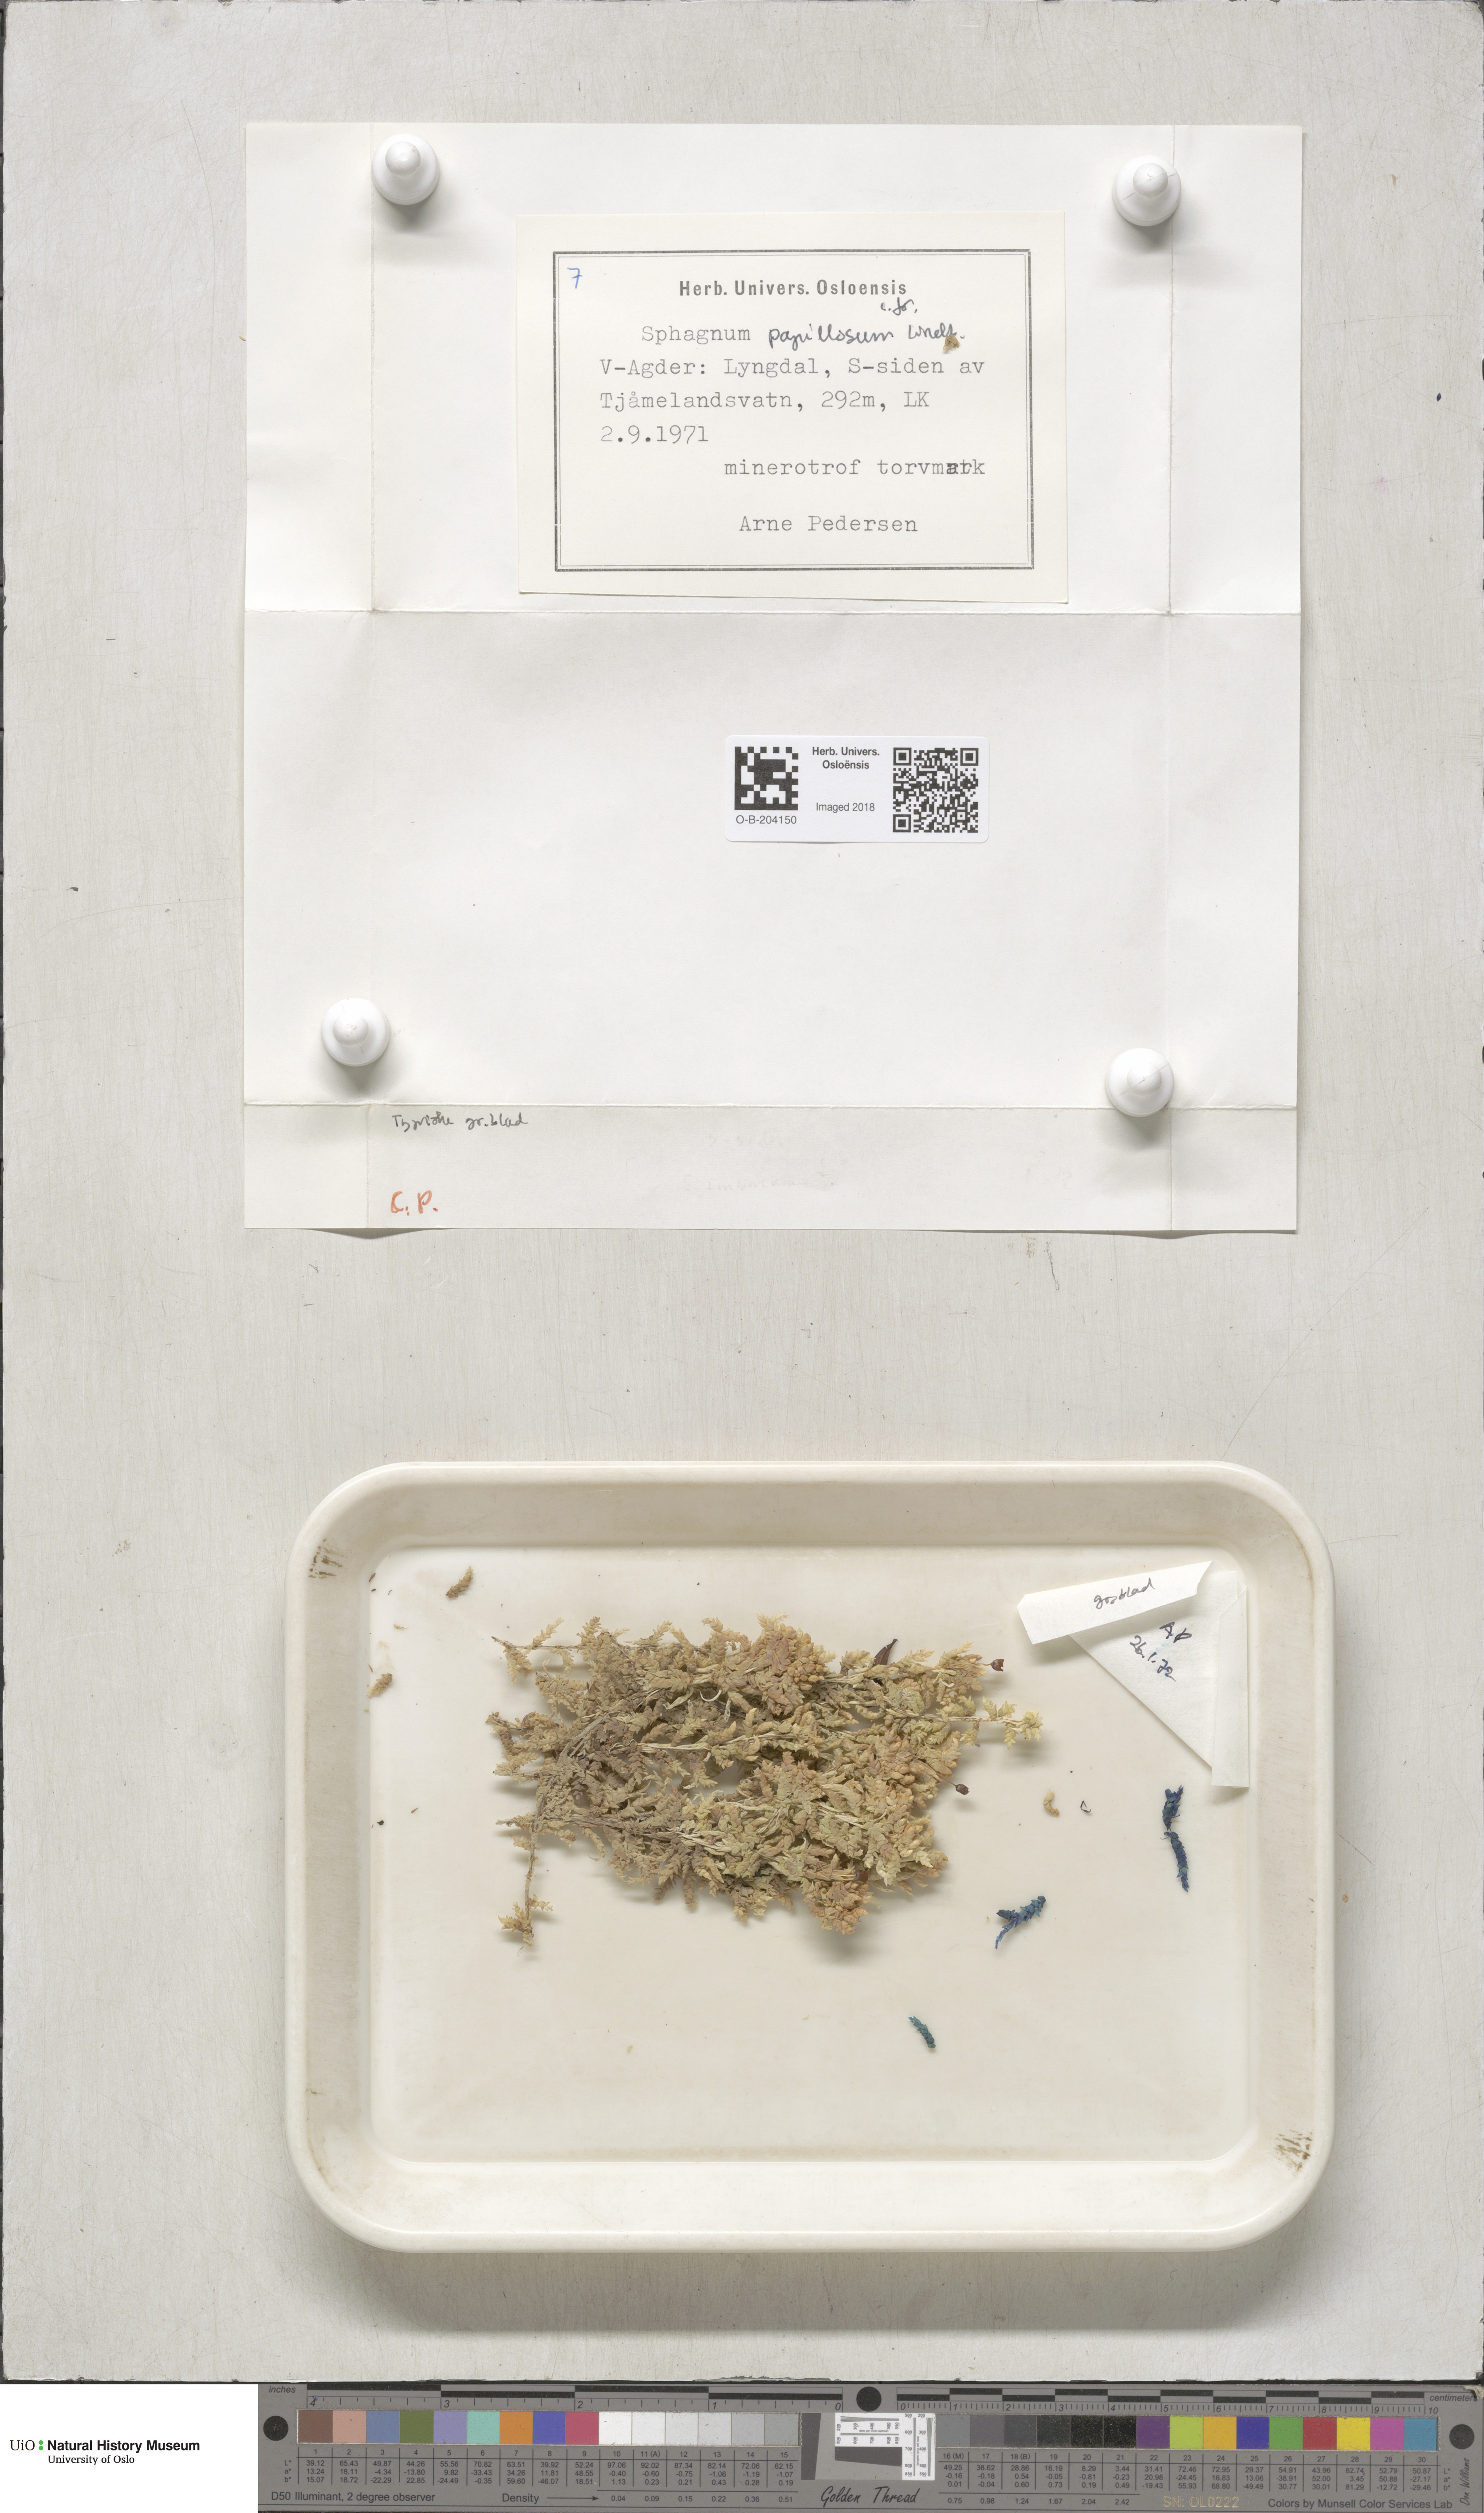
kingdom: Plantae
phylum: Bryophyta
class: Sphagnopsida
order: Sphagnales
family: Sphagnaceae
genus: Sphagnum
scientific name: Sphagnum papillosum
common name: Papillose peat moss
